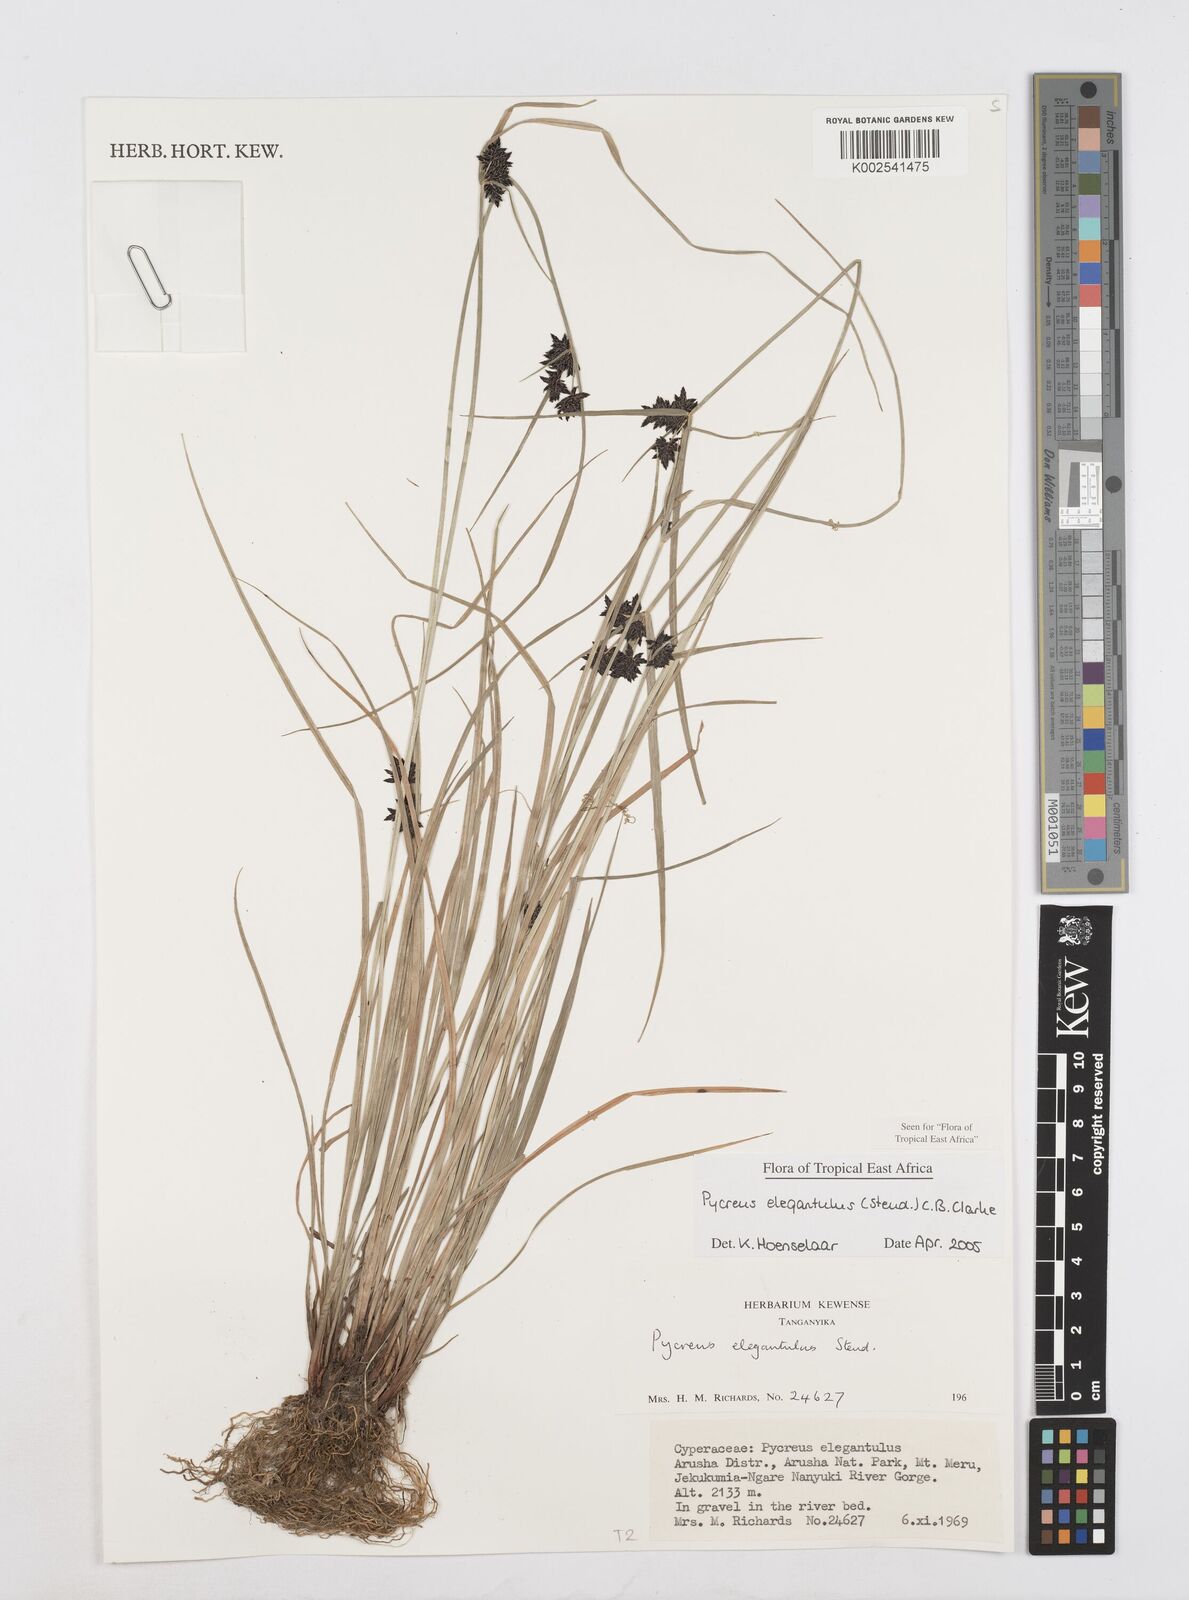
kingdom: Plantae
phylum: Tracheophyta
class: Liliopsida
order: Poales
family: Cyperaceae
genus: Cyperus
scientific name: Cyperus elegantulus
